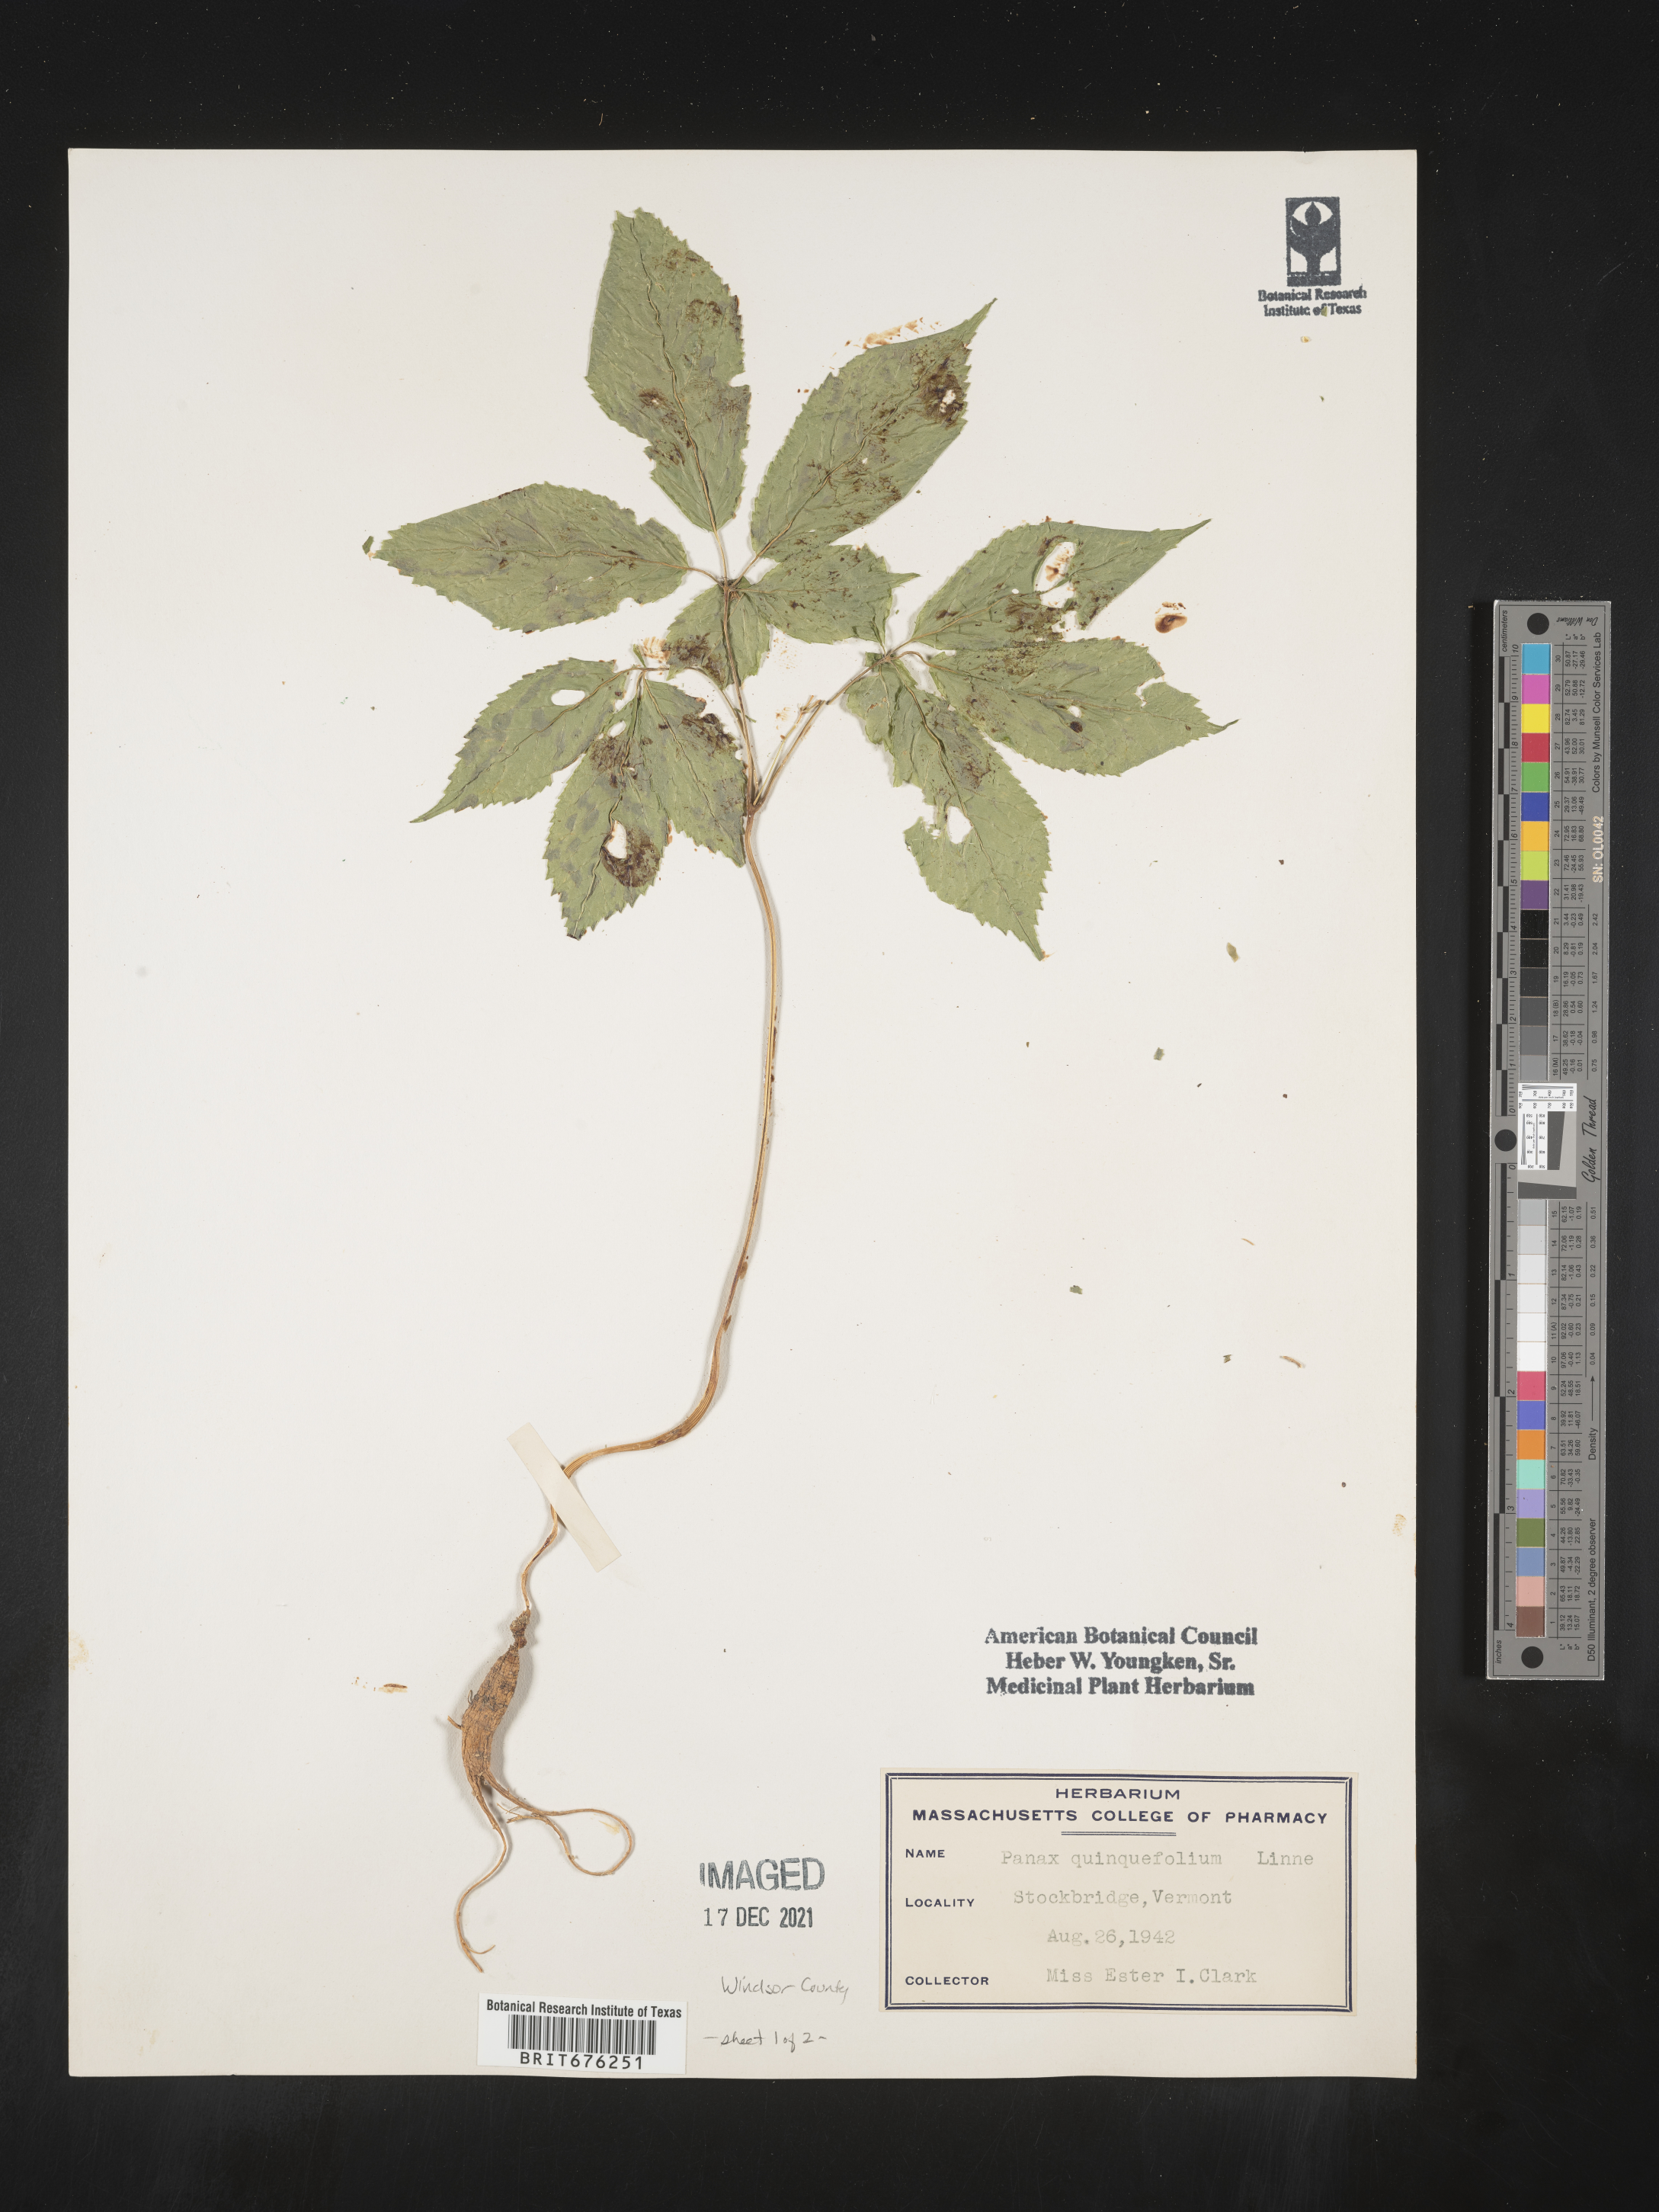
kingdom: Plantae
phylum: Tracheophyta
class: Magnoliopsida
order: Apiales
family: Araliaceae
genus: Panax
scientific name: Panax quinquefolius
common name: American ginseng
